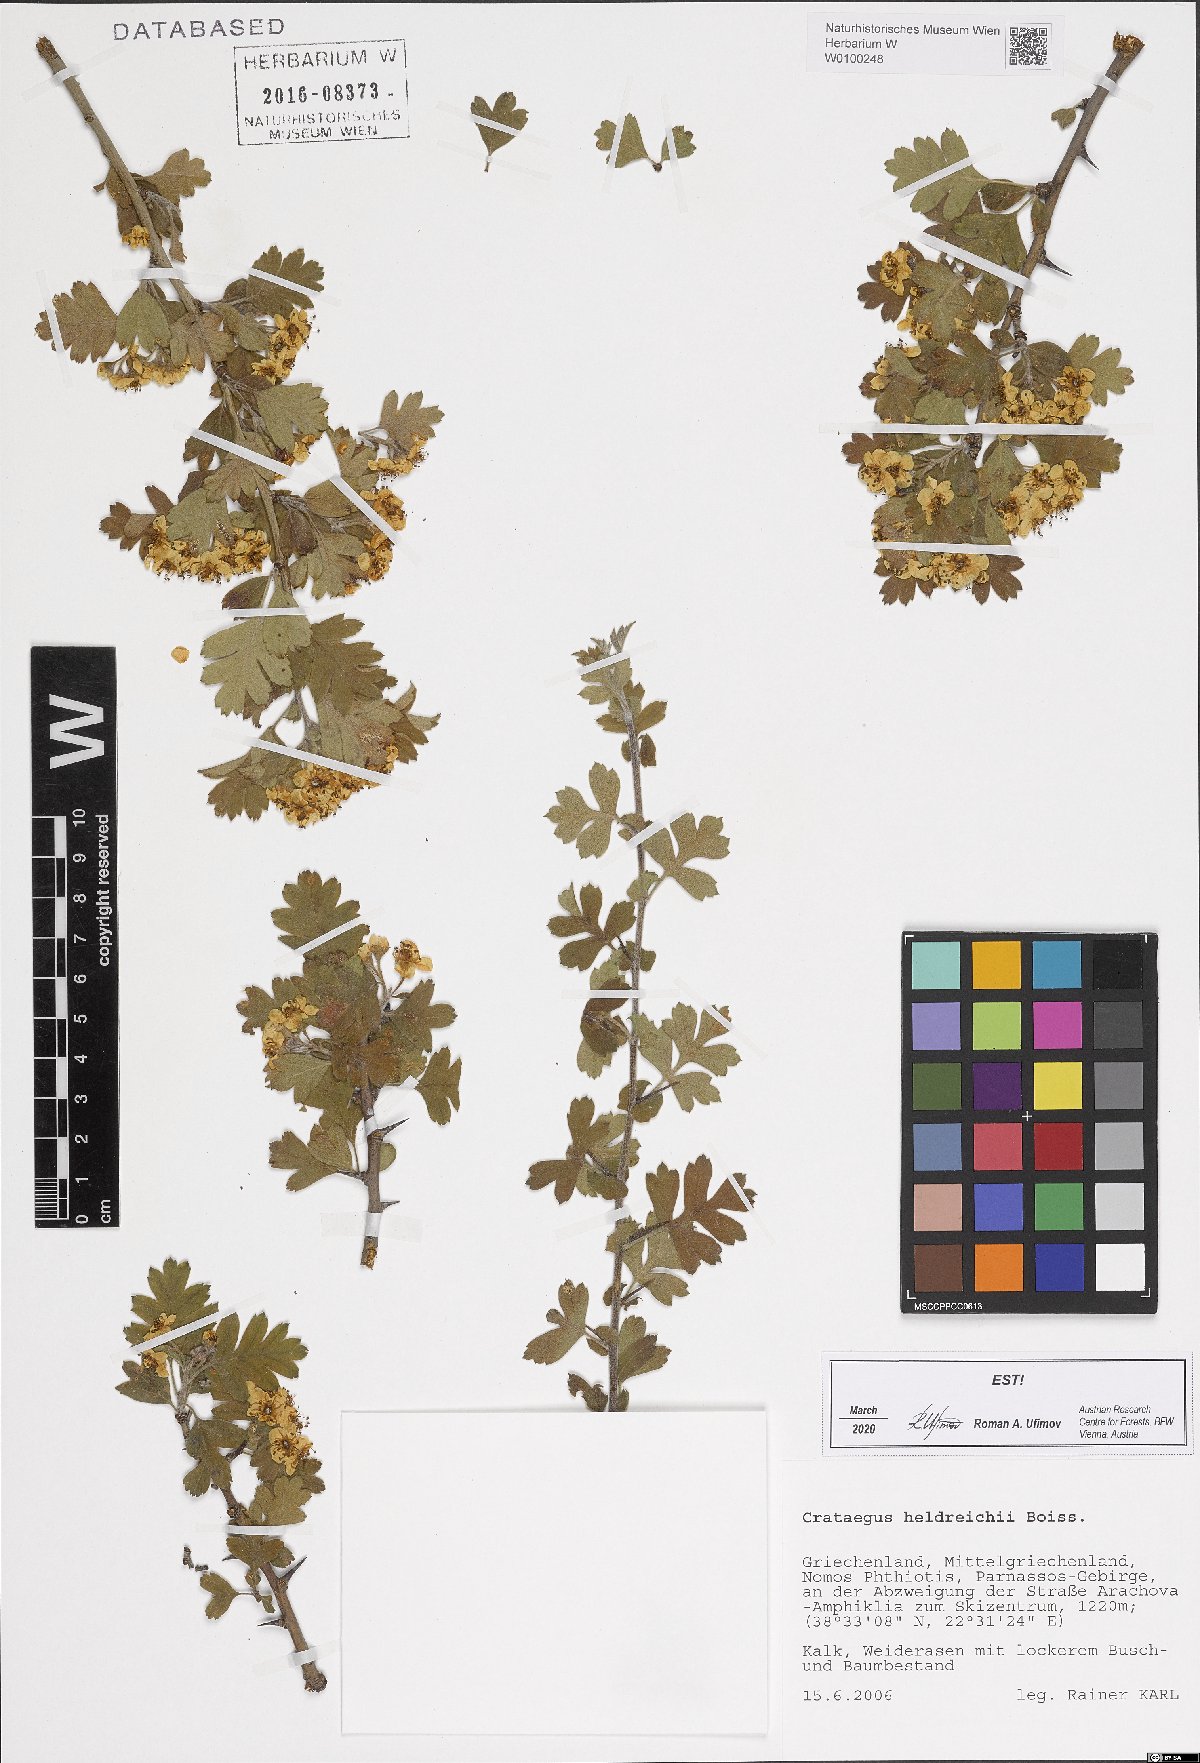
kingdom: Plantae
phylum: Tracheophyta
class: Magnoliopsida
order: Rosales
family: Rosaceae
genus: Crataegus
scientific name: Crataegus heldreichii
